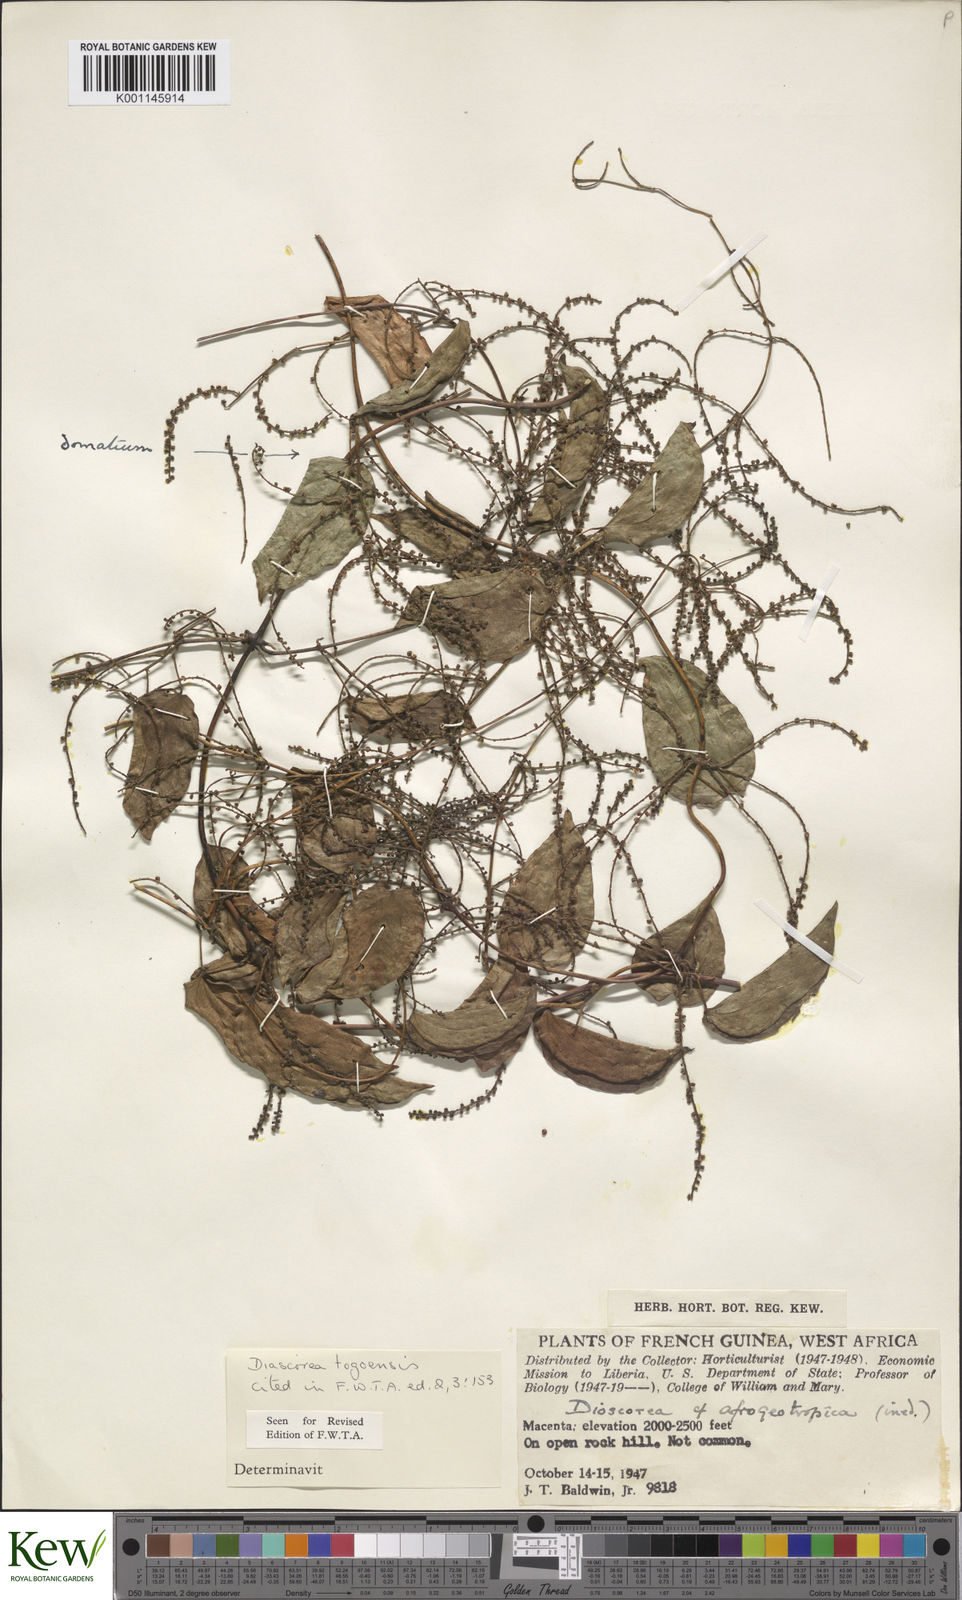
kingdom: Plantae
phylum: Tracheophyta
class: Liliopsida
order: Dioscoreales
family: Dioscoreaceae
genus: Dioscorea
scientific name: Dioscorea togoensis
